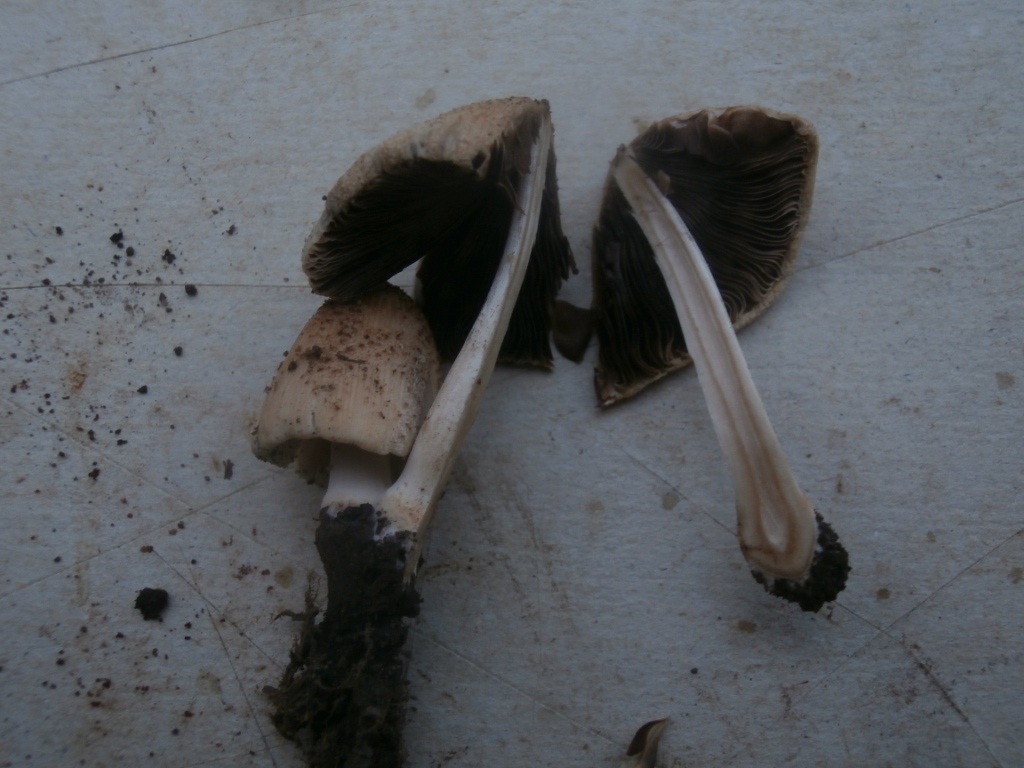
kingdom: Fungi
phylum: Basidiomycota
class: Agaricomycetes
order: Agaricales
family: Psathyrellaceae
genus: Coprinellus
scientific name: Coprinellus radians
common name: grynet blækhat
